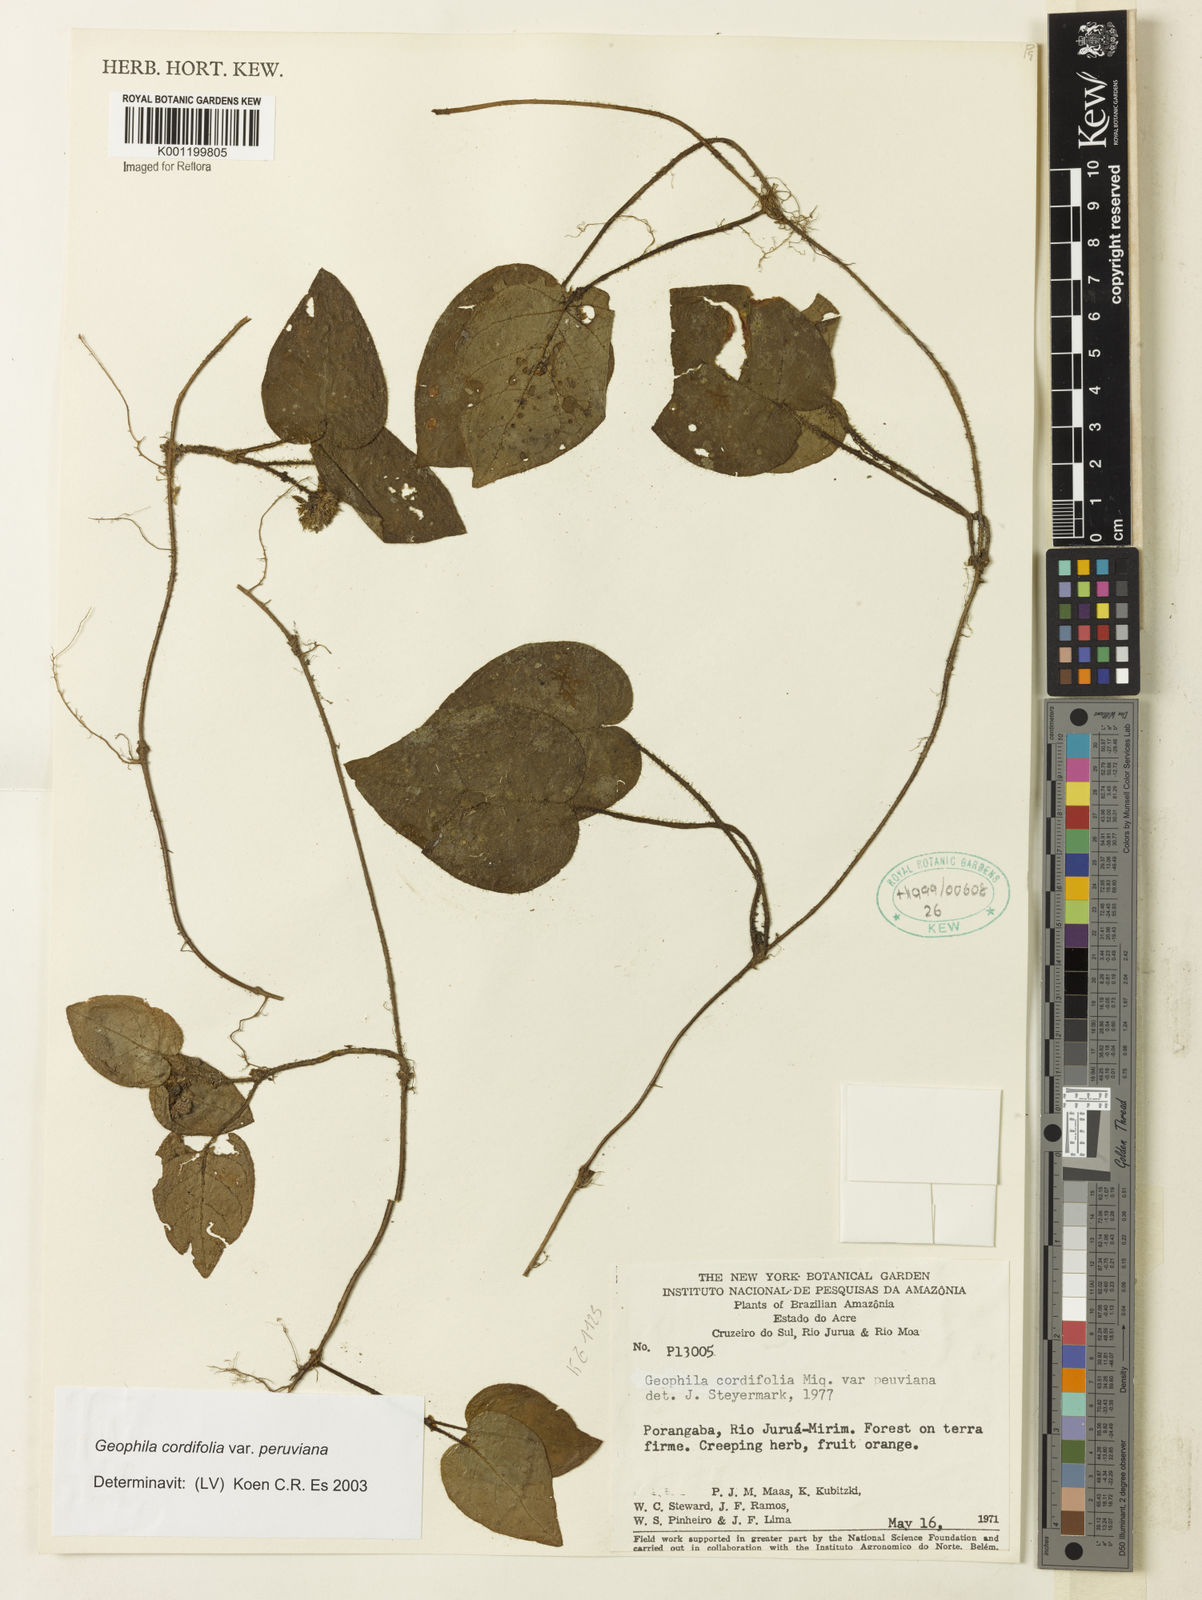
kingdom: Plantae
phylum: Tracheophyta
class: Magnoliopsida
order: Gentianales
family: Rubiaceae
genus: Geophila
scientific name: Geophila cordifolia
